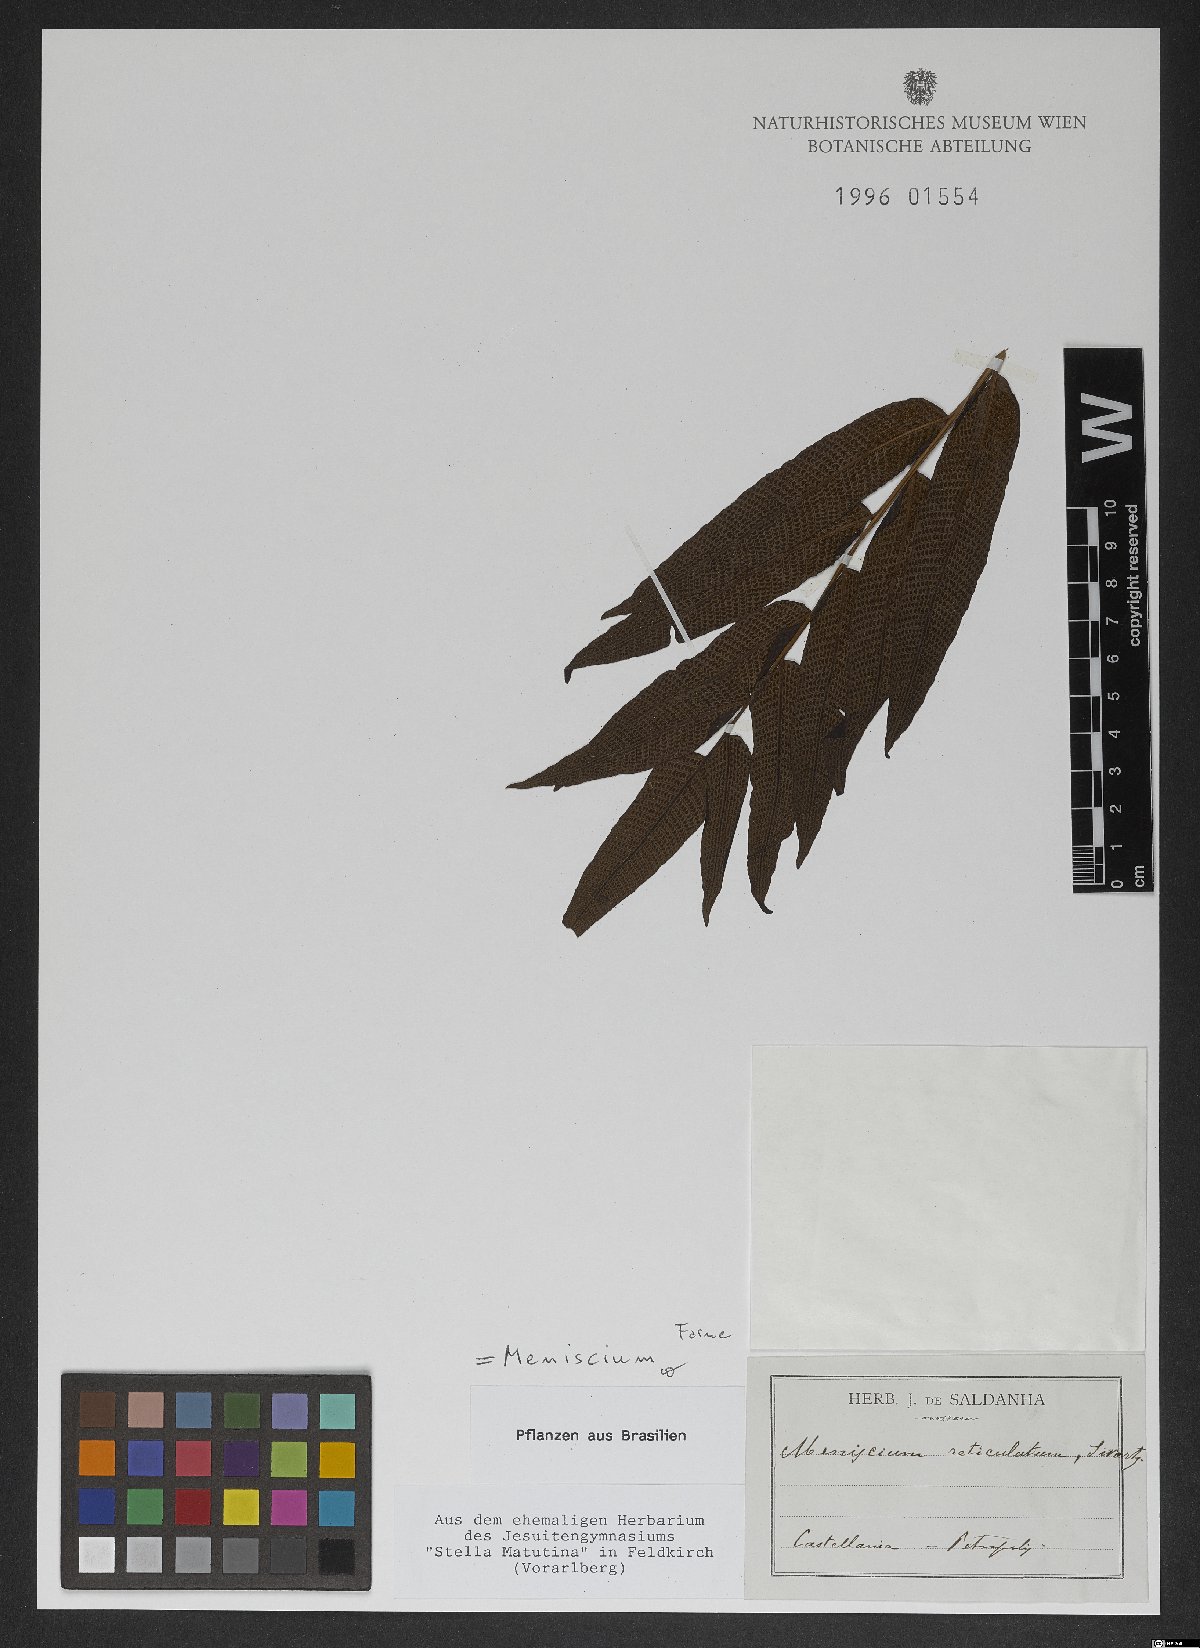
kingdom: Plantae
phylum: Tracheophyta
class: Polypodiopsida
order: Polypodiales
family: Thelypteridaceae
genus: Meniscium
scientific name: Meniscium reticulatum
